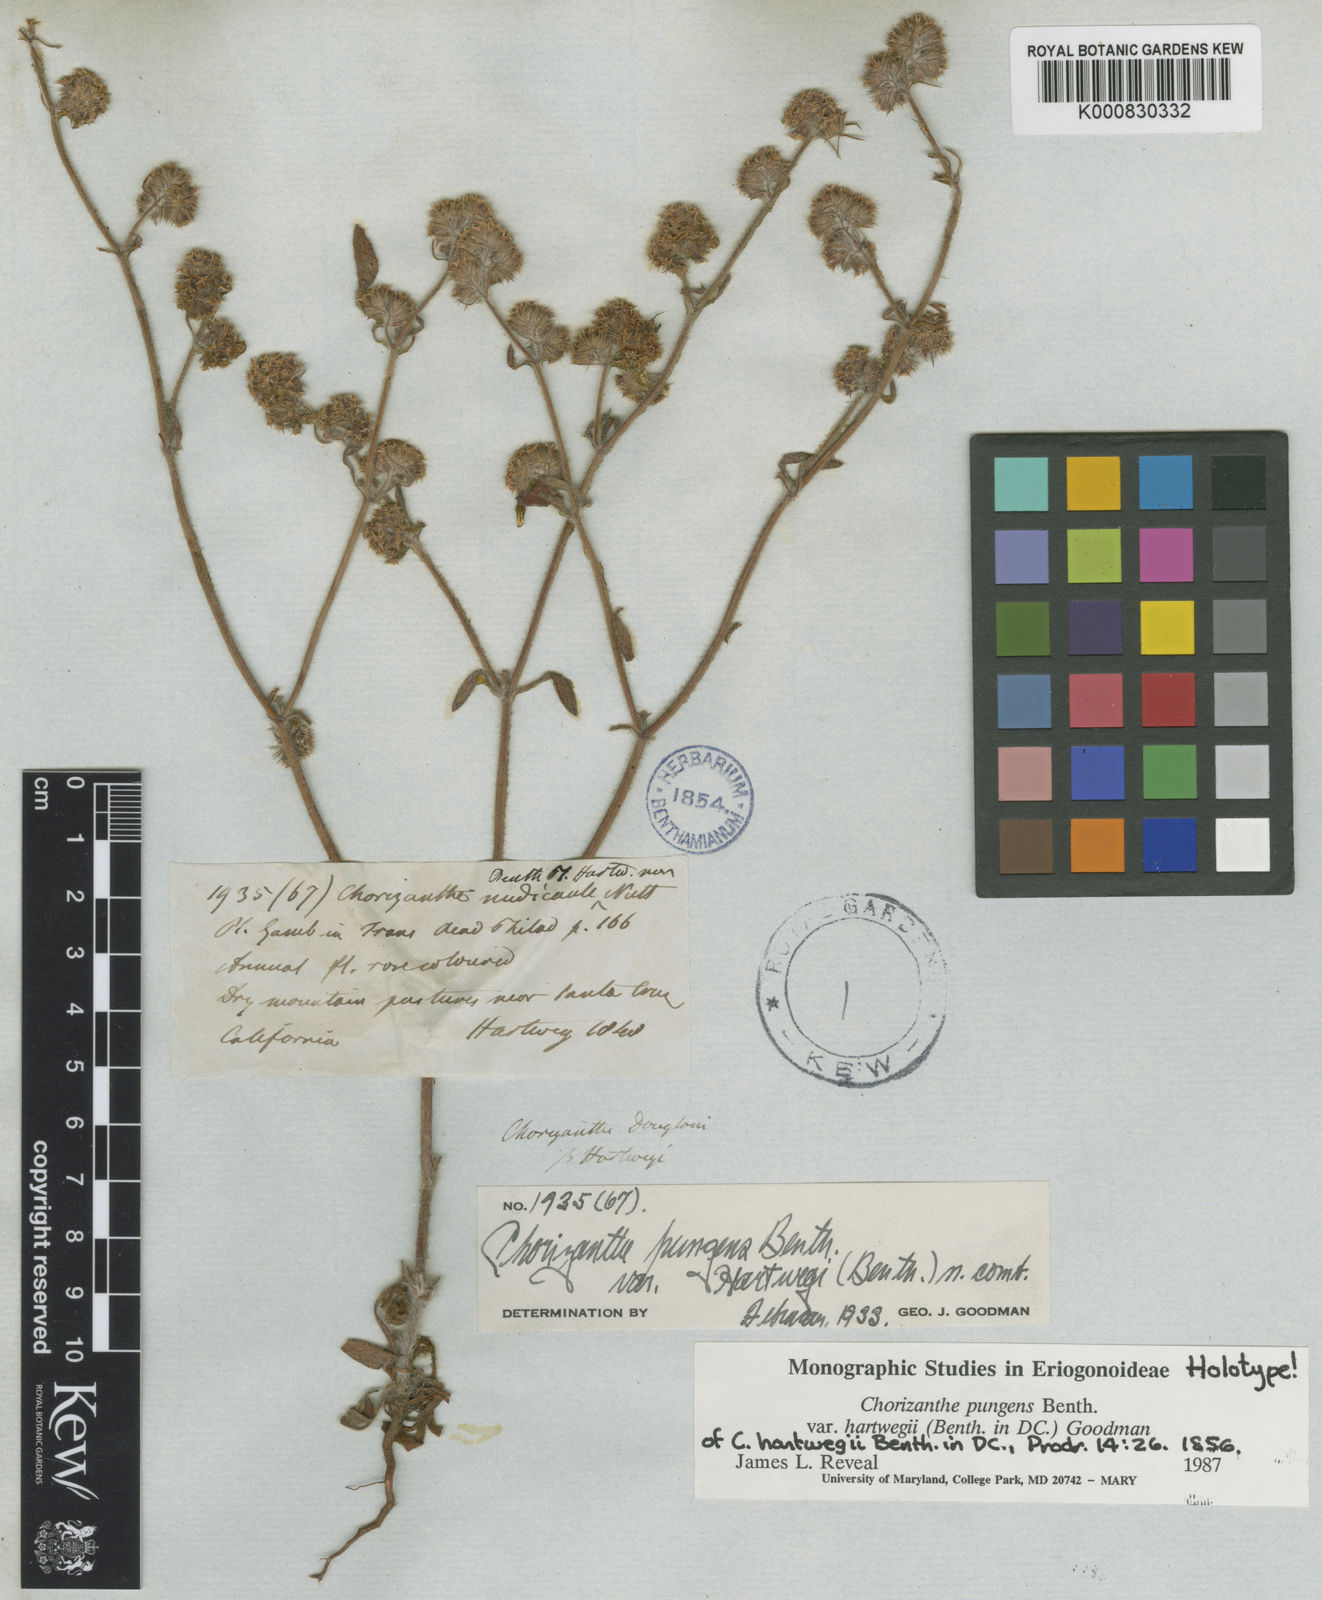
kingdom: Plantae
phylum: Tracheophyta
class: Magnoliopsida
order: Caryophyllales
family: Polygonaceae
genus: Chorizanthe
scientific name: Chorizanthe pungens
